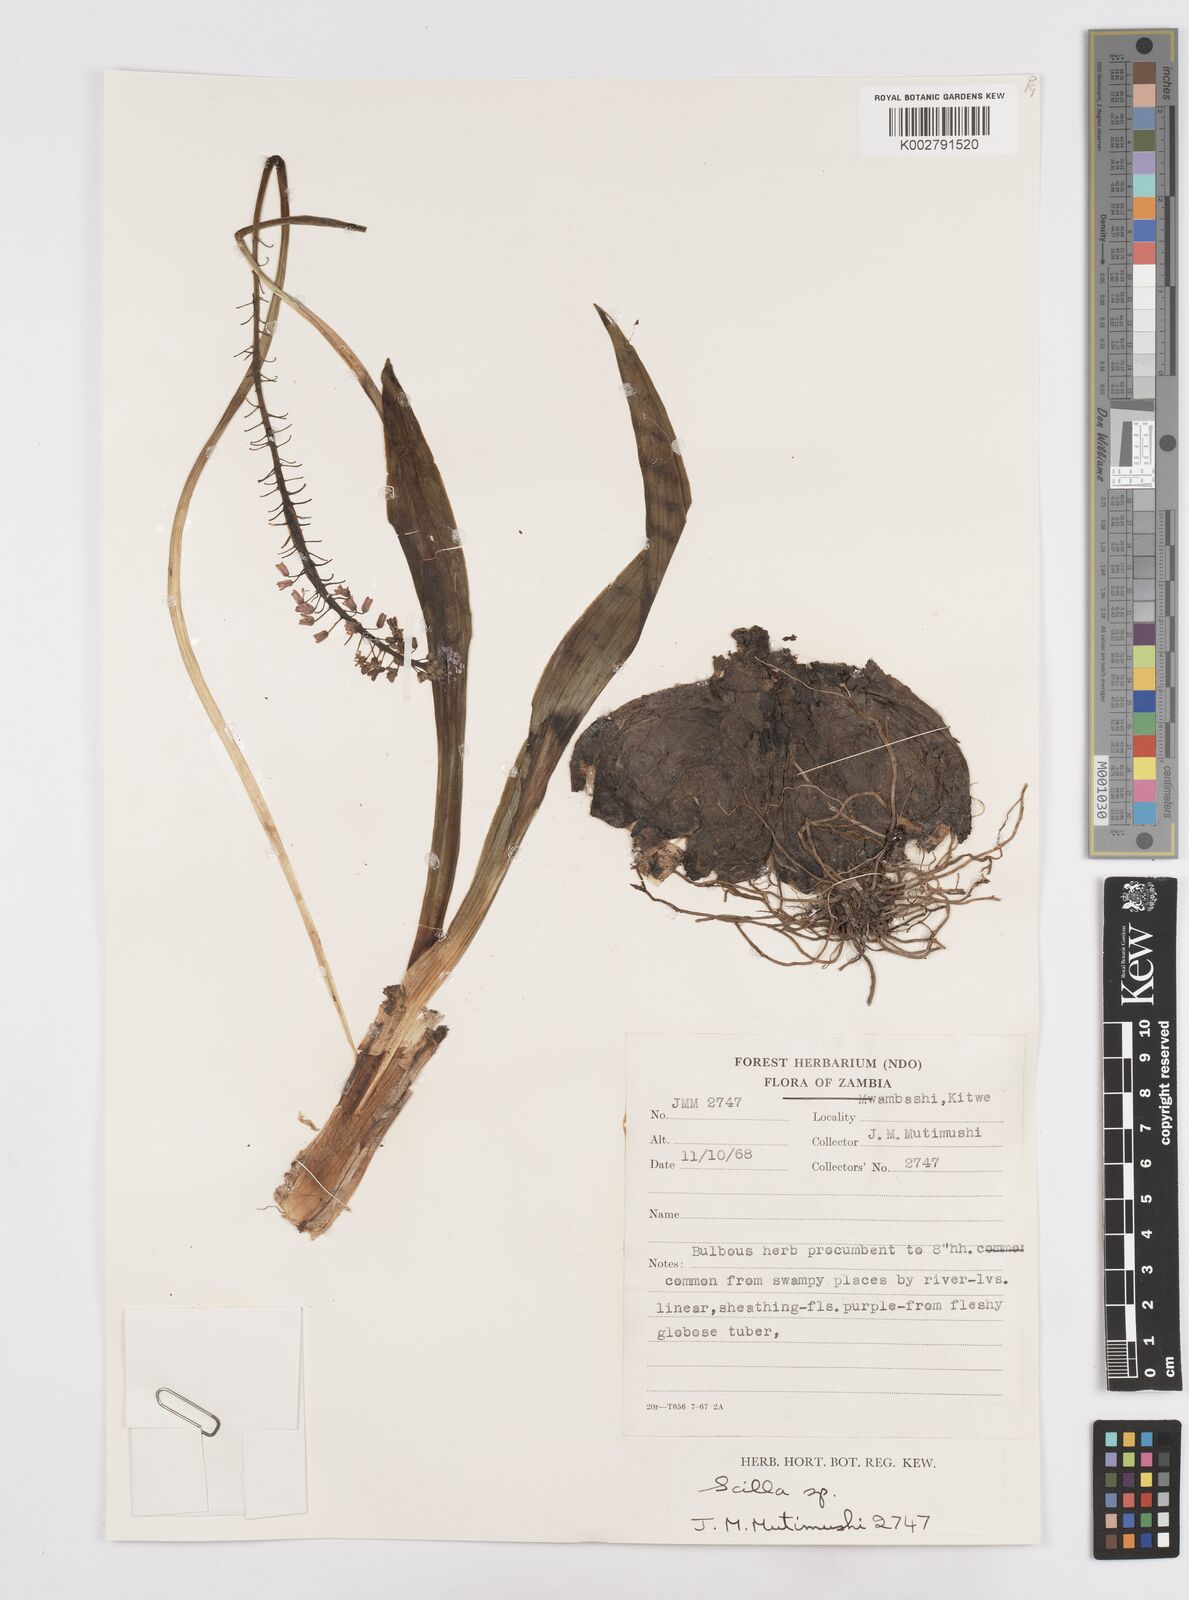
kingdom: Plantae
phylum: Tracheophyta
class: Liliopsida
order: Asparagales
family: Asparagaceae
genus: Scilla
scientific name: Scilla
